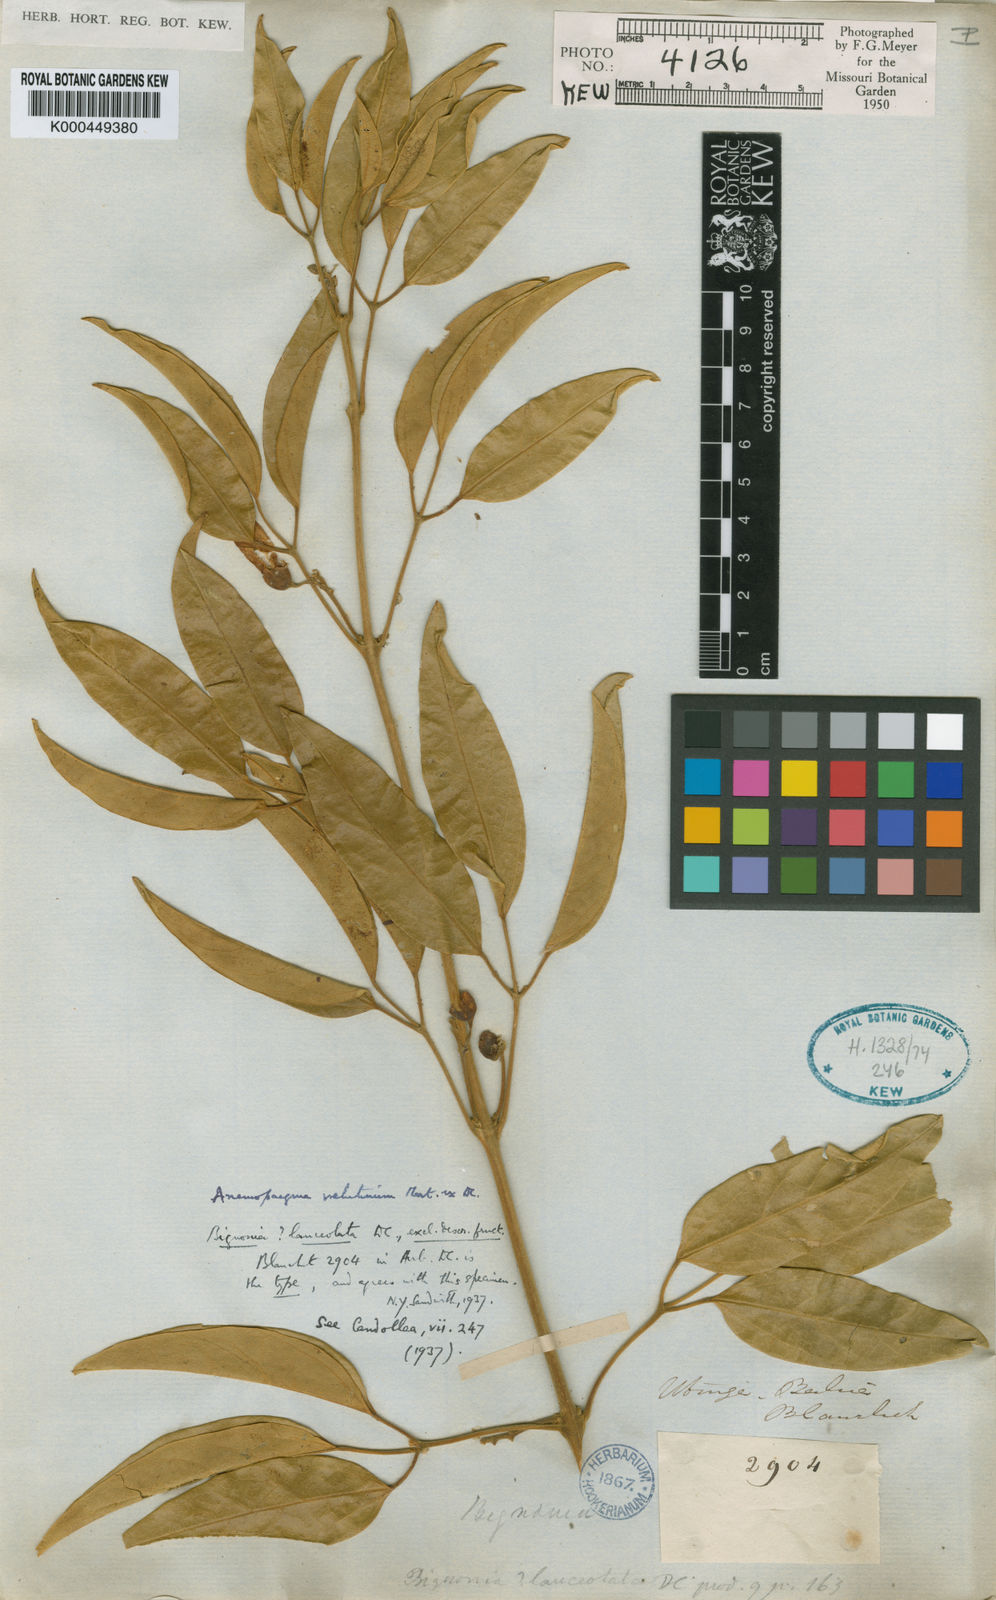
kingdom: Plantae
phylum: Tracheophyta
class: Magnoliopsida
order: Lamiales
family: Bignoniaceae
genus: Anemopaegma
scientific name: Anemopaegma velutinum
